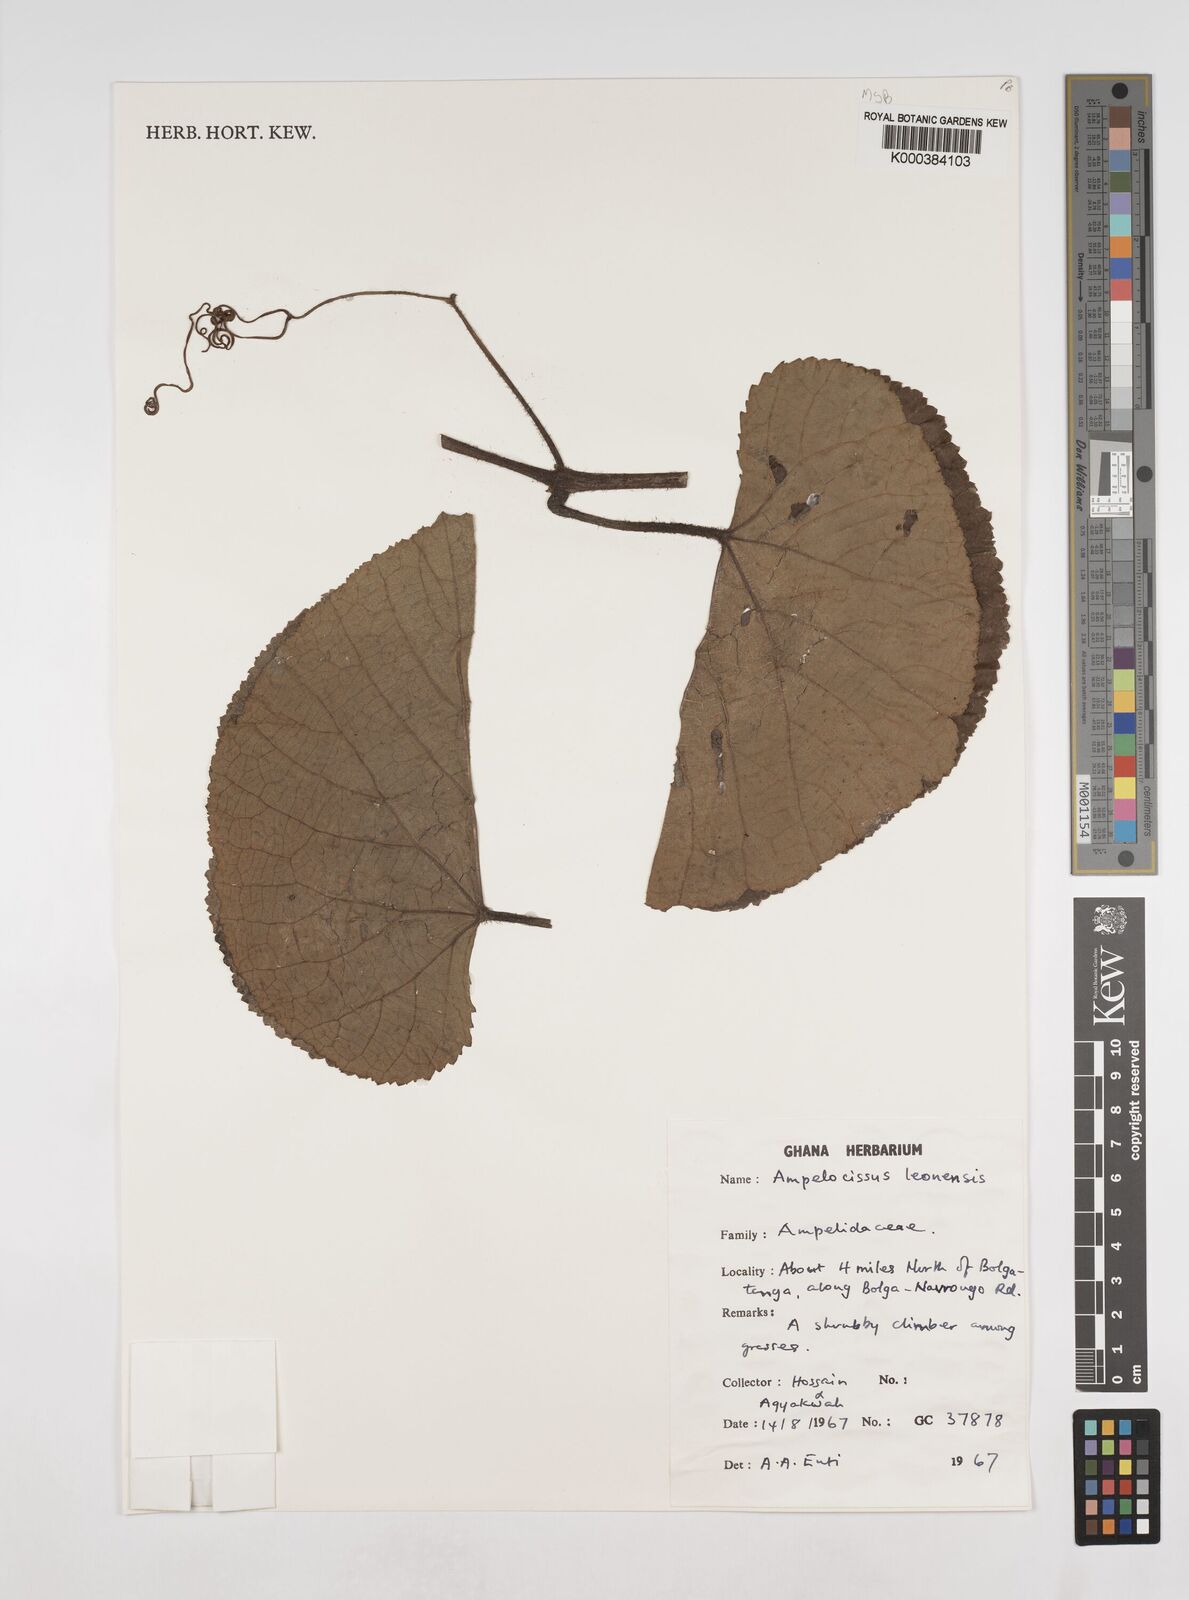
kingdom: Plantae
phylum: Tracheophyta
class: Magnoliopsida
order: Vitales
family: Vitaceae
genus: Ampelocissus
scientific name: Ampelocissus leonensis
